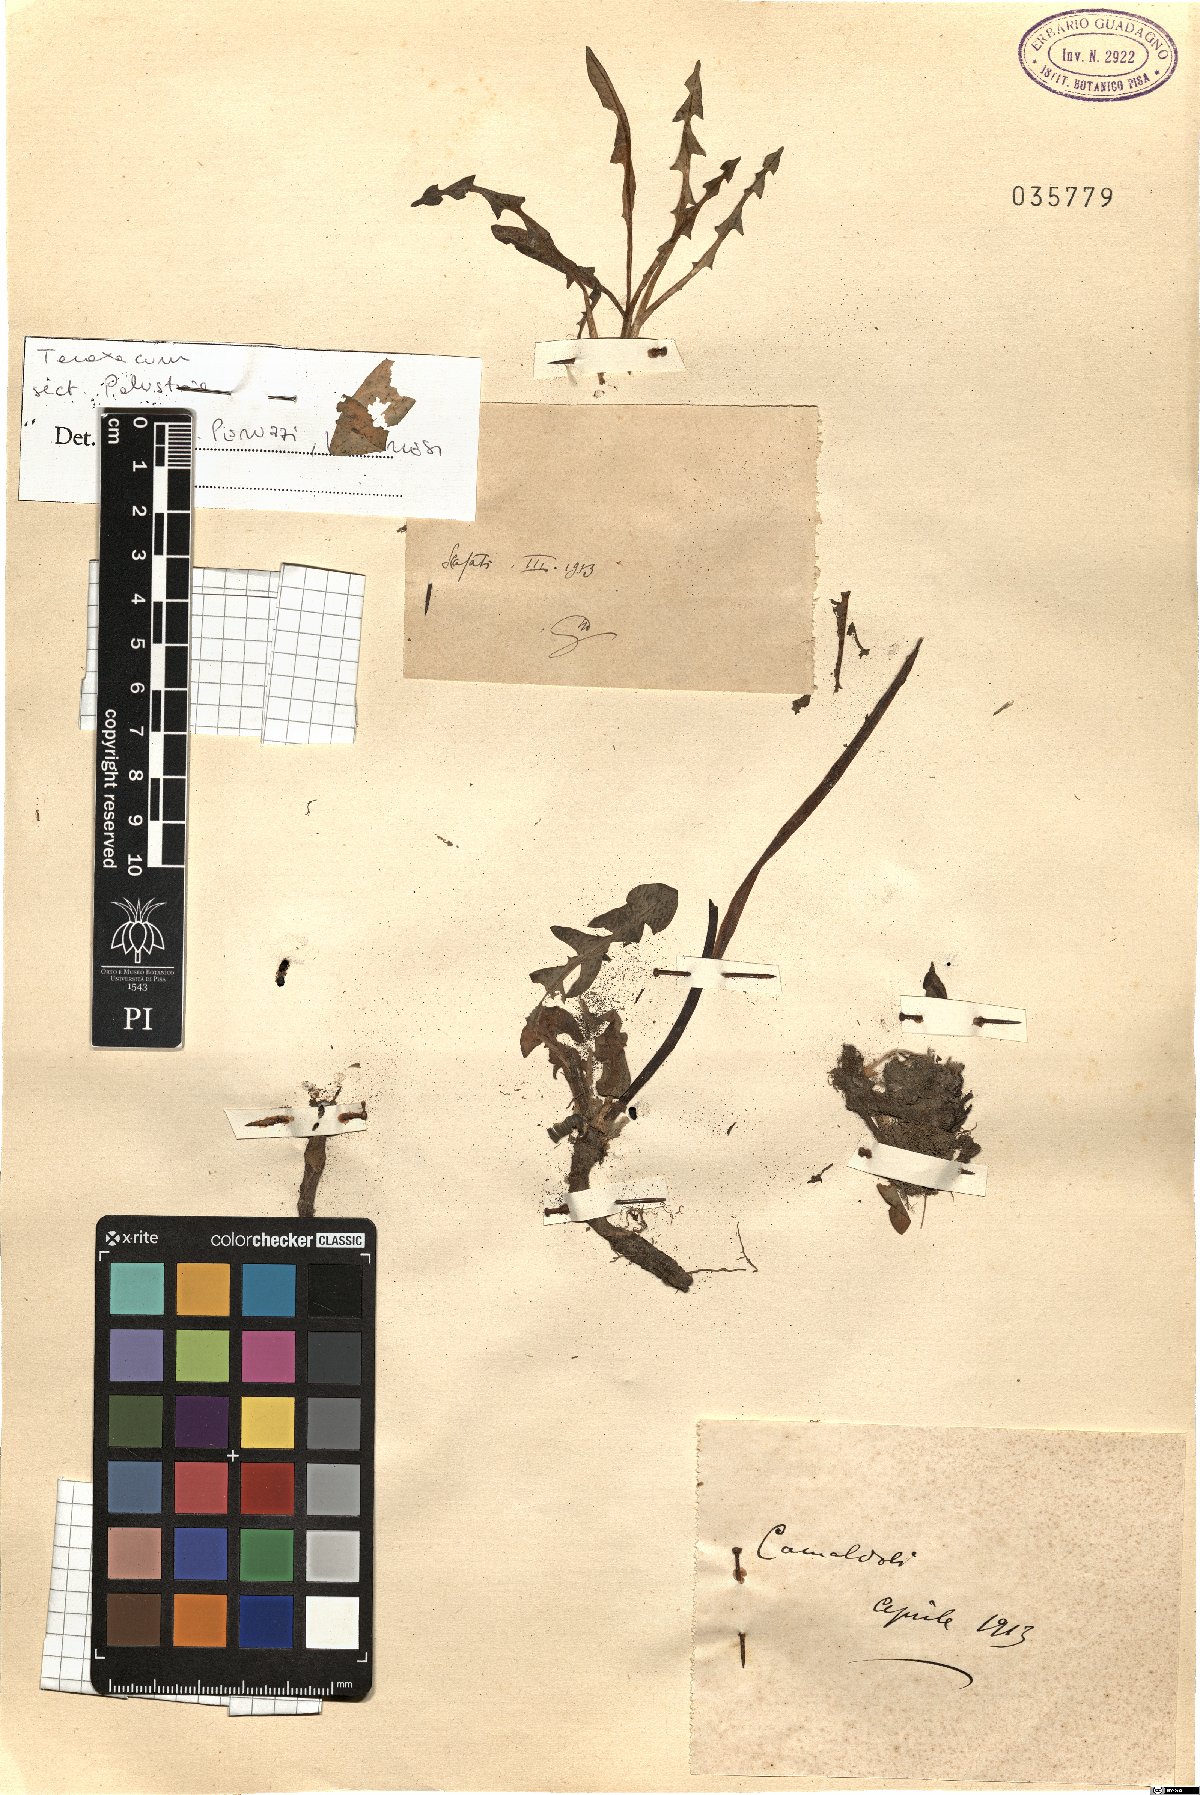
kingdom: Plantae
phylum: Tracheophyta
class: Magnoliopsida
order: Asterales
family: Asteraceae
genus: Taraxacum
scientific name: Taraxacum palustria
